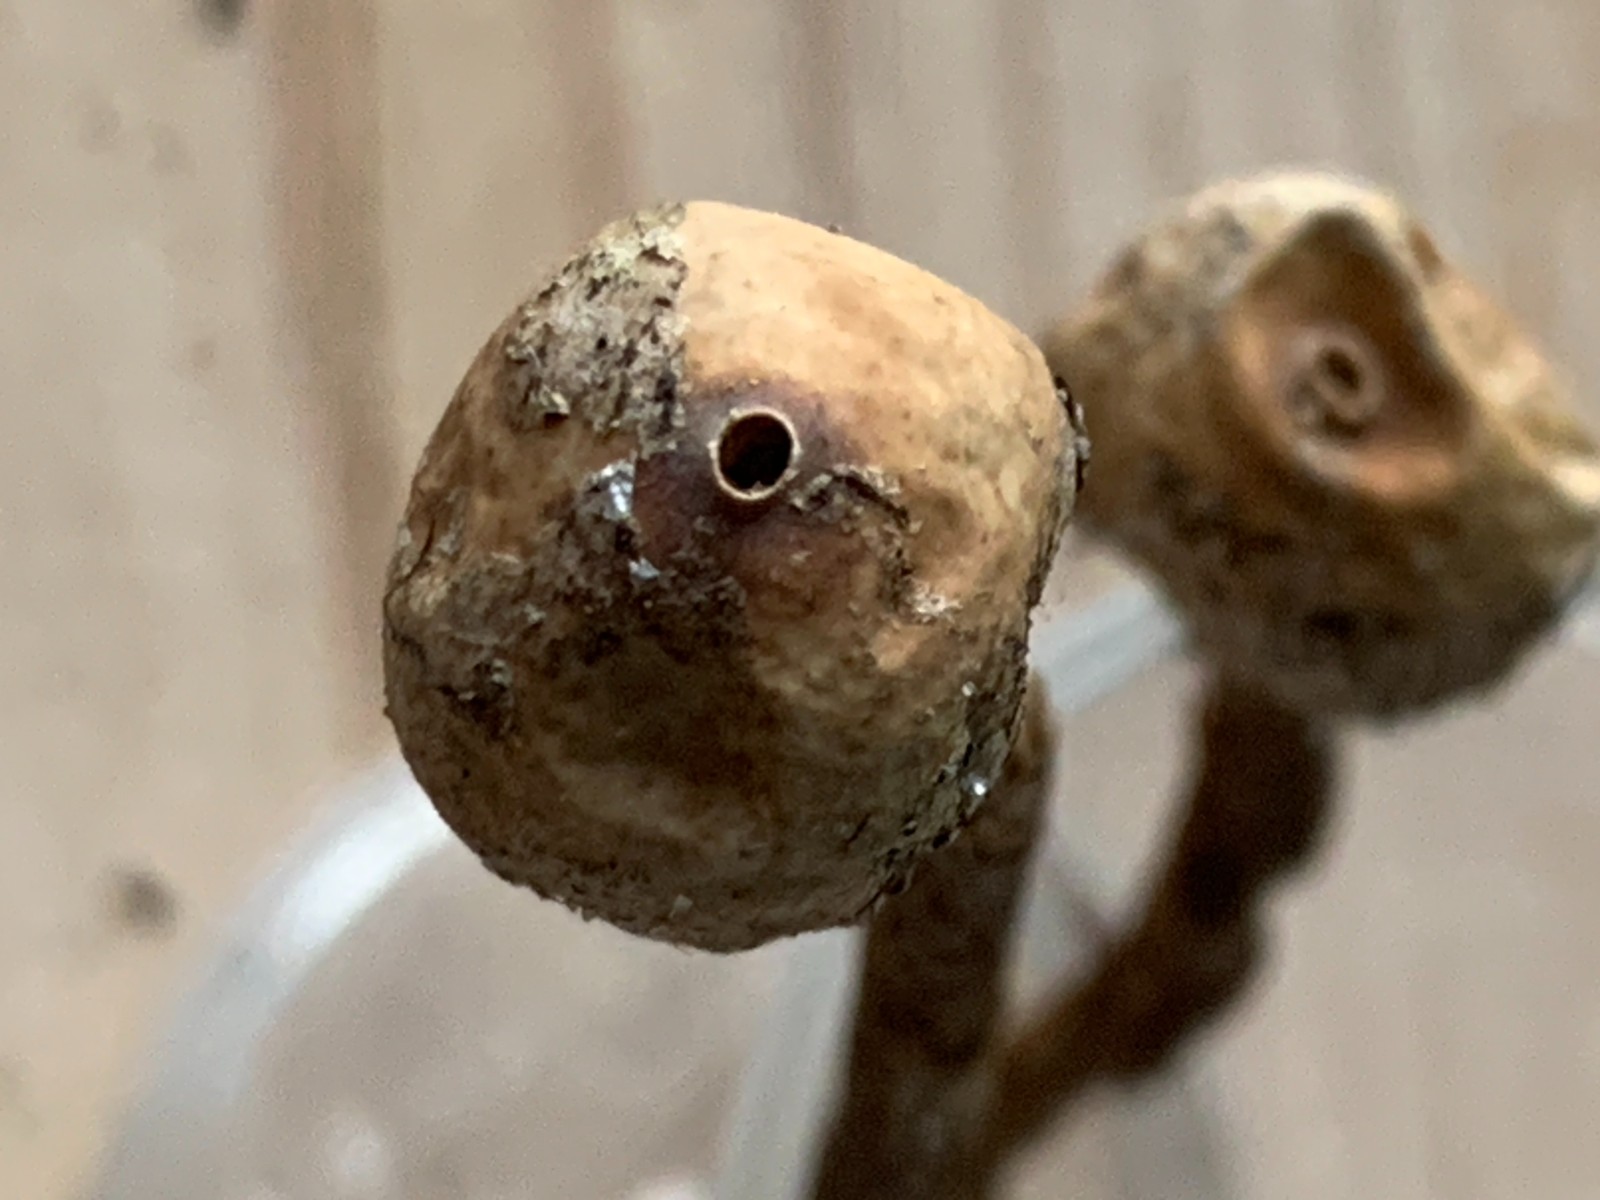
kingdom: Fungi
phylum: Basidiomycota
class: Agaricomycetes
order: Agaricales
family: Agaricaceae
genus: Tulostoma
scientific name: Tulostoma brumale
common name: vinter-stilkbovist
